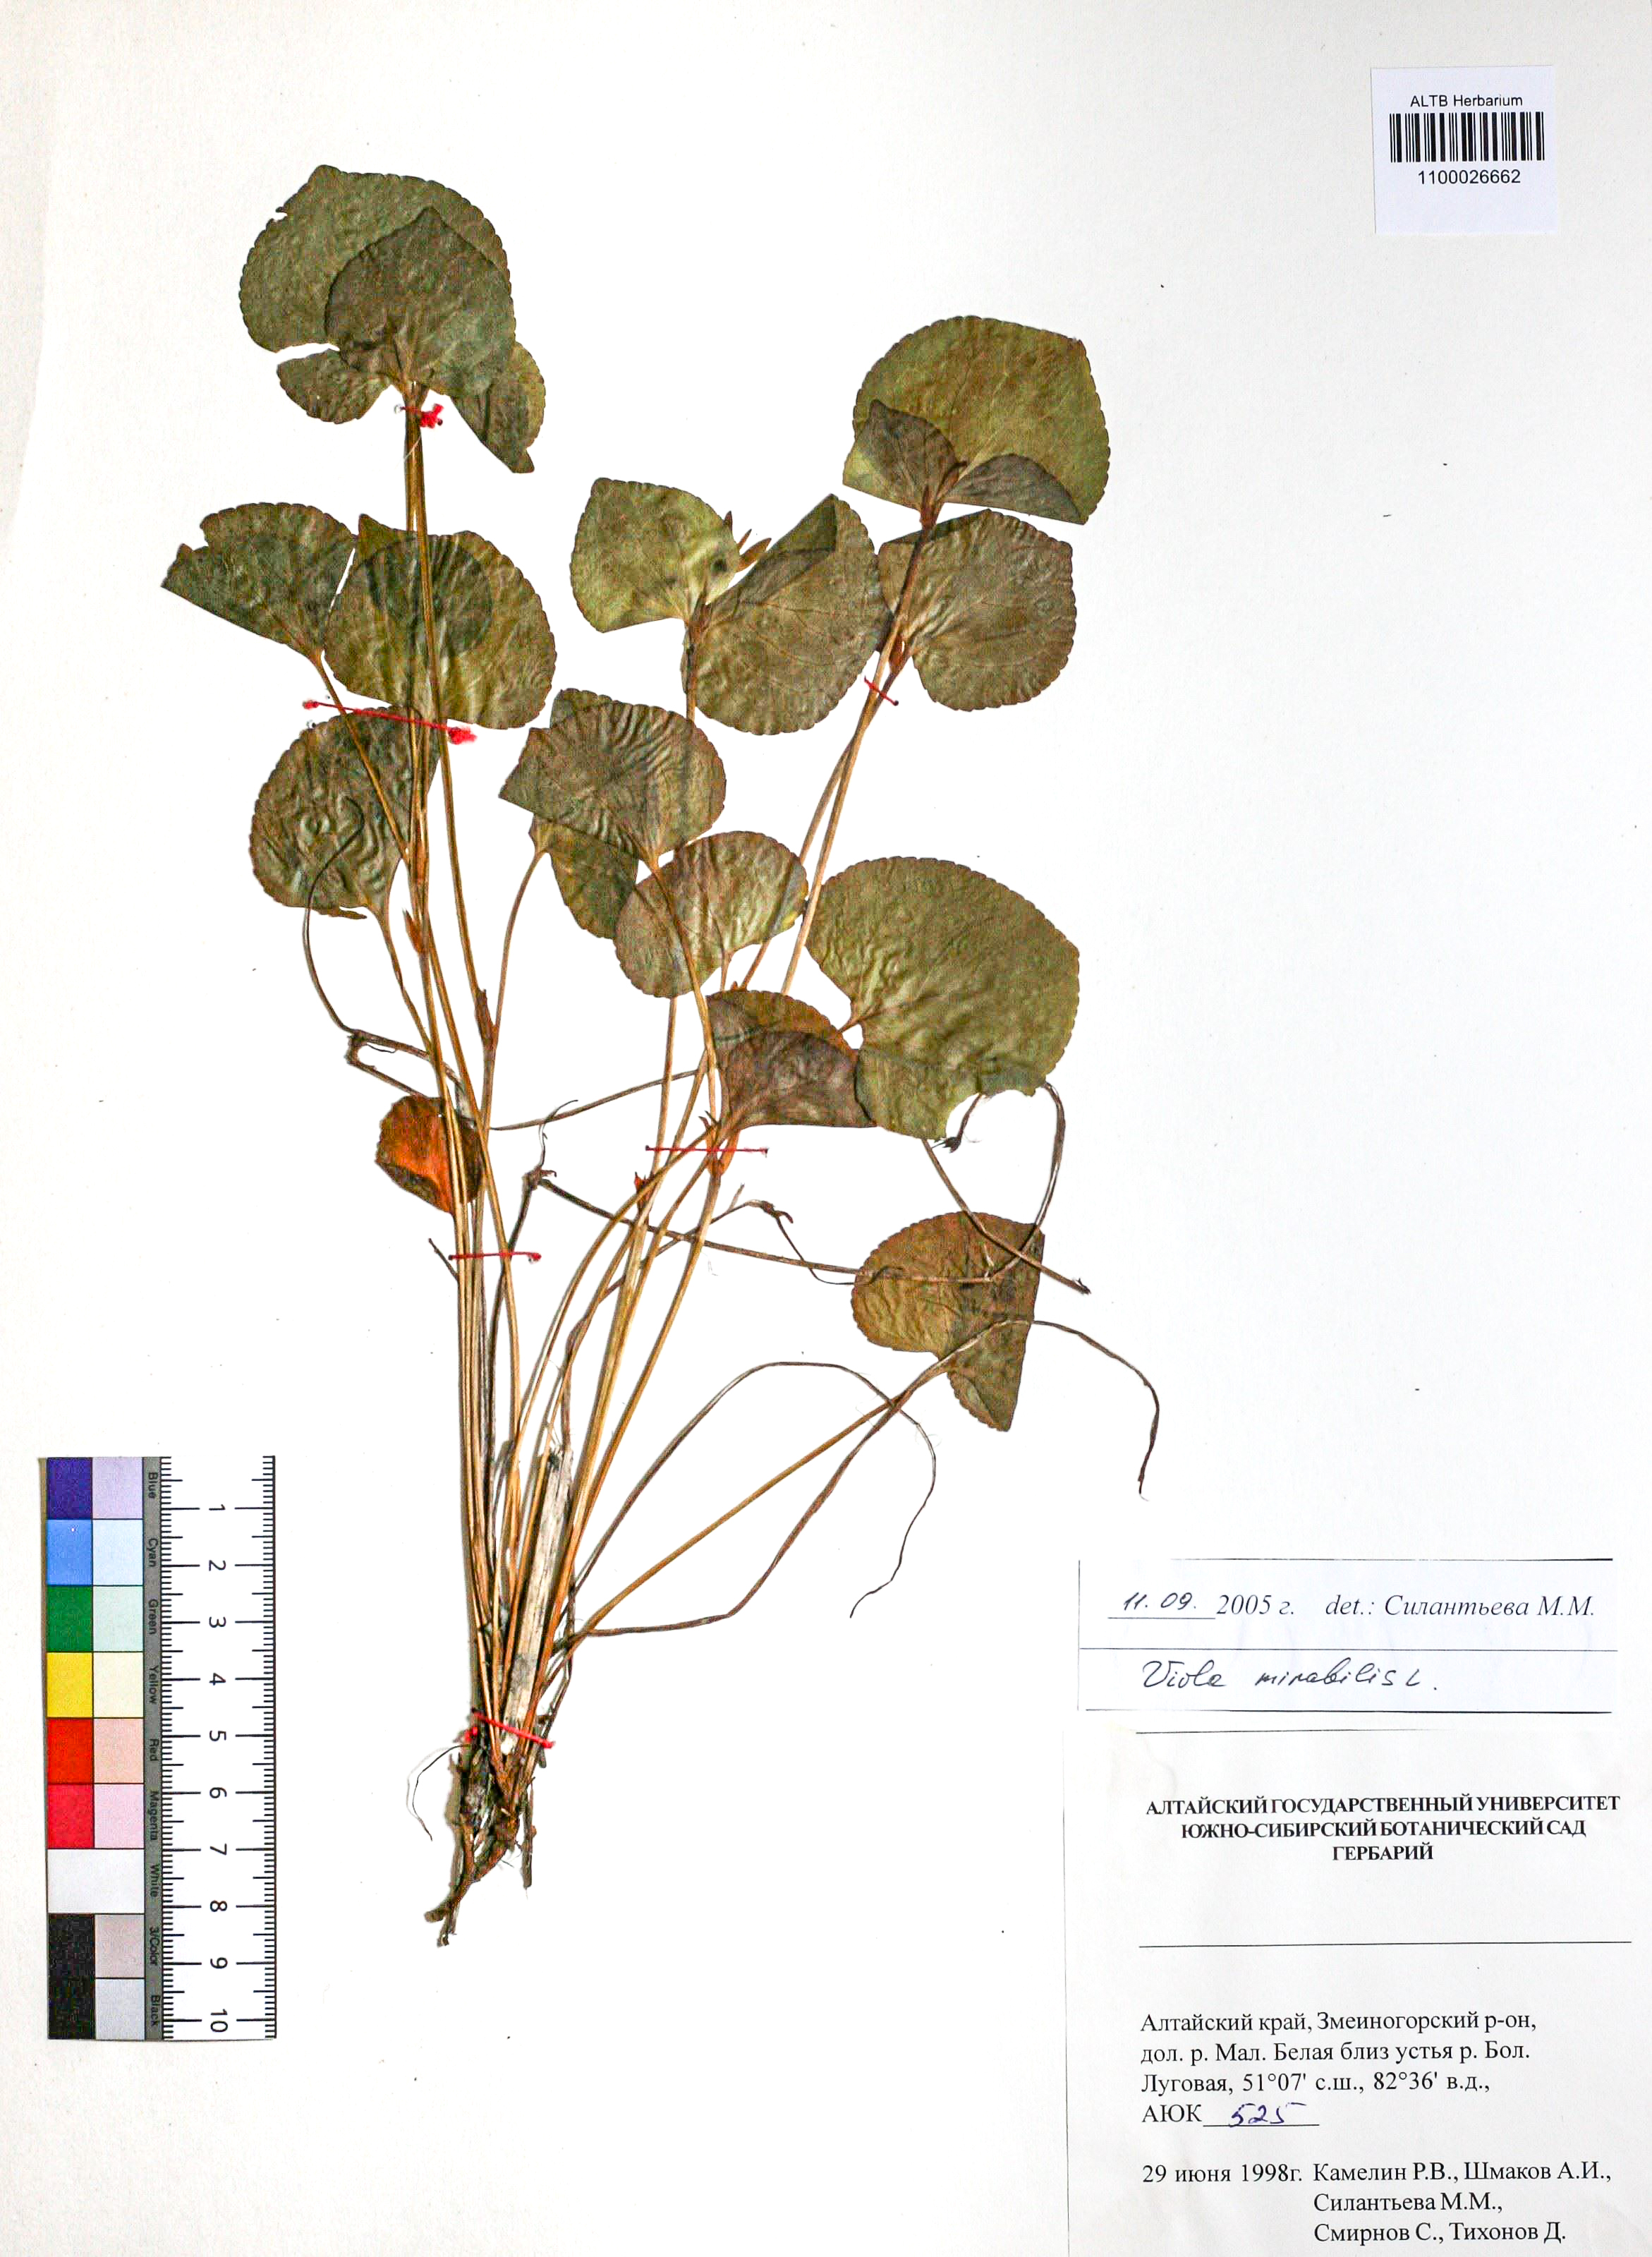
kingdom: Plantae
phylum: Tracheophyta
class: Magnoliopsida
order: Malpighiales
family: Violaceae
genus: Viola
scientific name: Viola mirabilis
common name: Wonder violet
